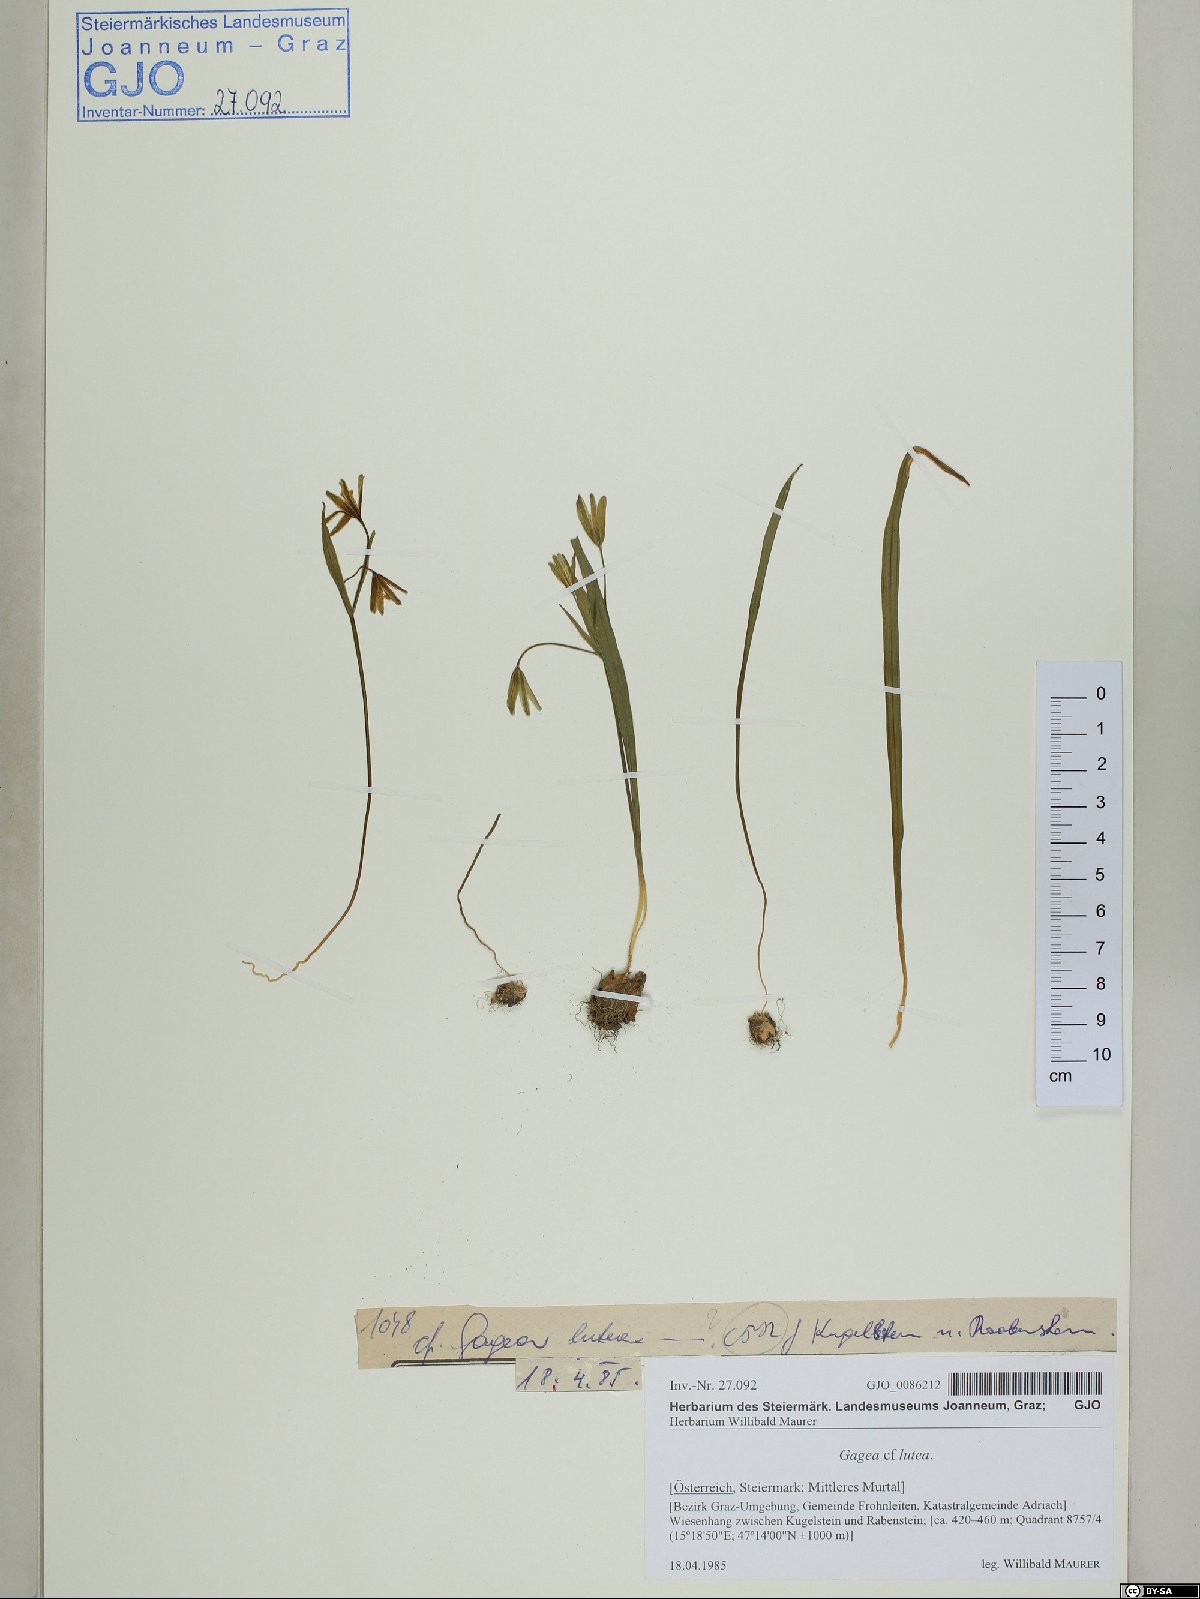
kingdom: Plantae
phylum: Tracheophyta
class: Liliopsida
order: Liliales
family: Liliaceae
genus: Gagea
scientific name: Gagea lutea
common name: Yellow star-of-bethlehem
